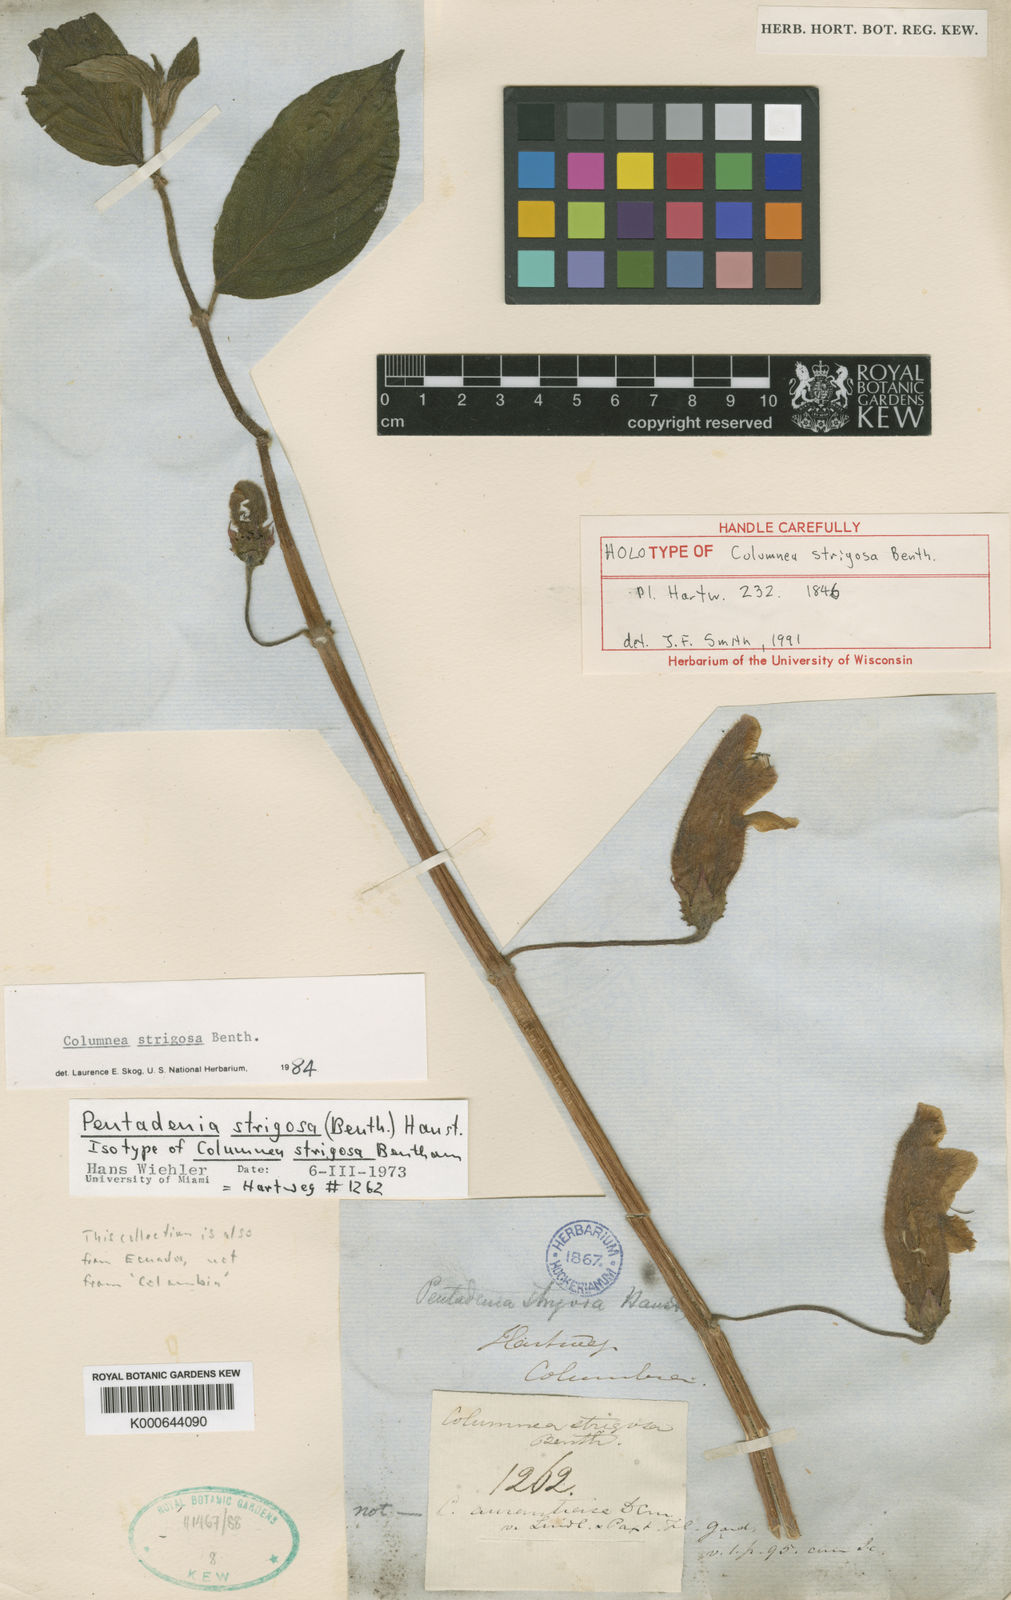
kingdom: Plantae
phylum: Tracheophyta
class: Magnoliopsida
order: Lamiales
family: Gesneriaceae
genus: Columnea
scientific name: Columnea strigosa
